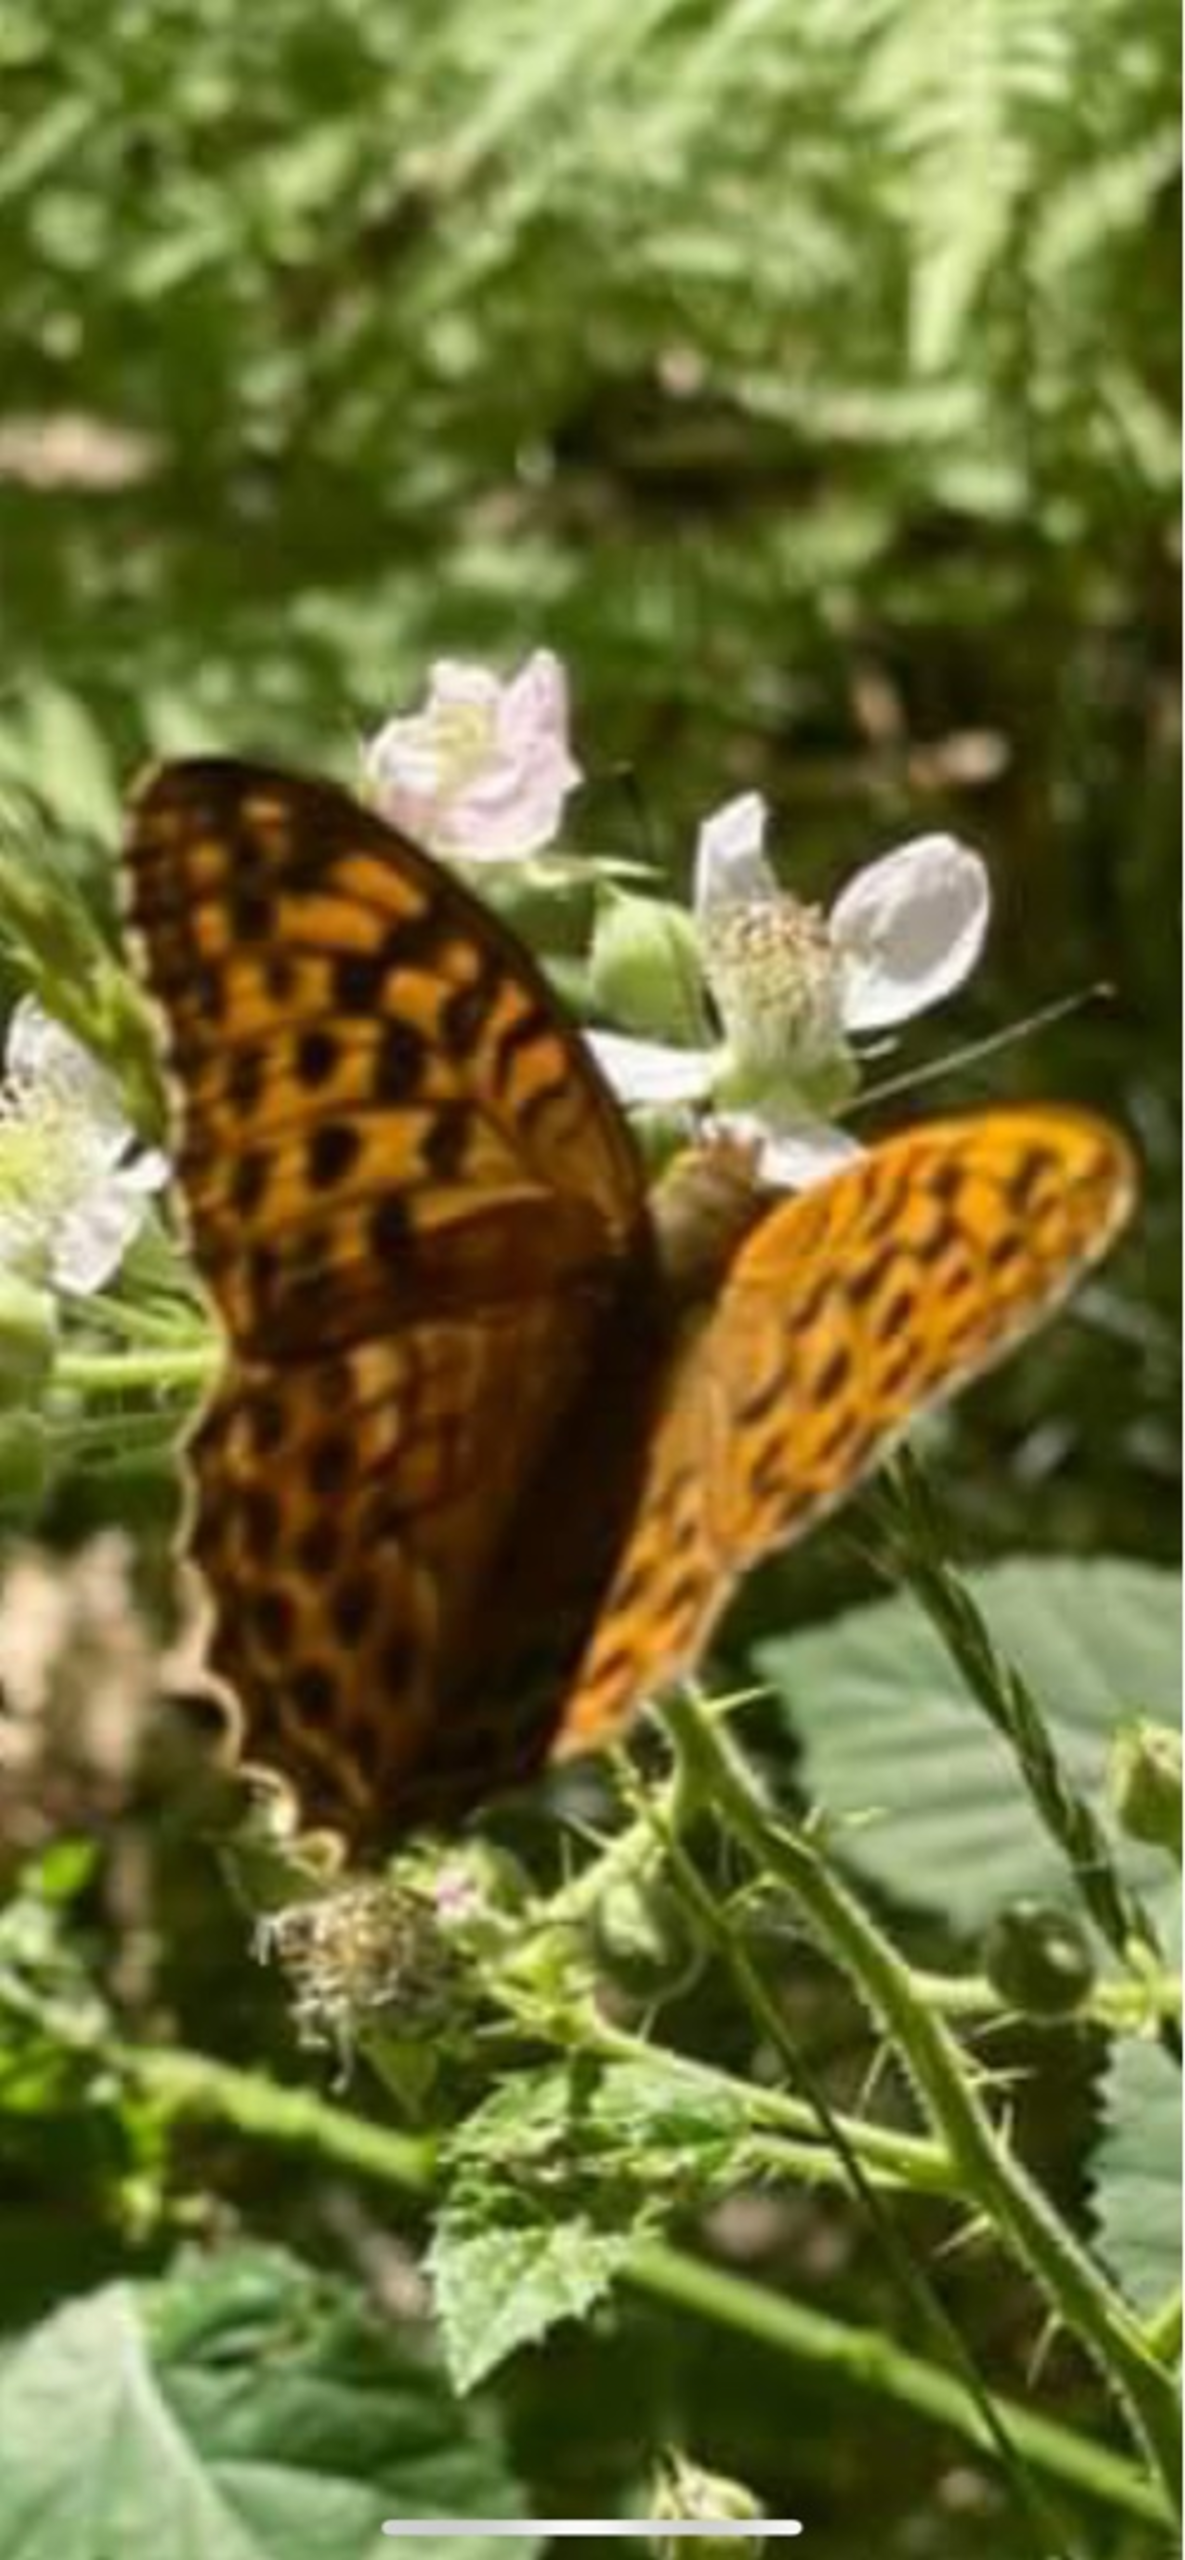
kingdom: Animalia
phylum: Arthropoda
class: Insecta
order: Lepidoptera
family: Nymphalidae
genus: Argynnis
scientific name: Argynnis paphia
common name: Kejserkåbe
